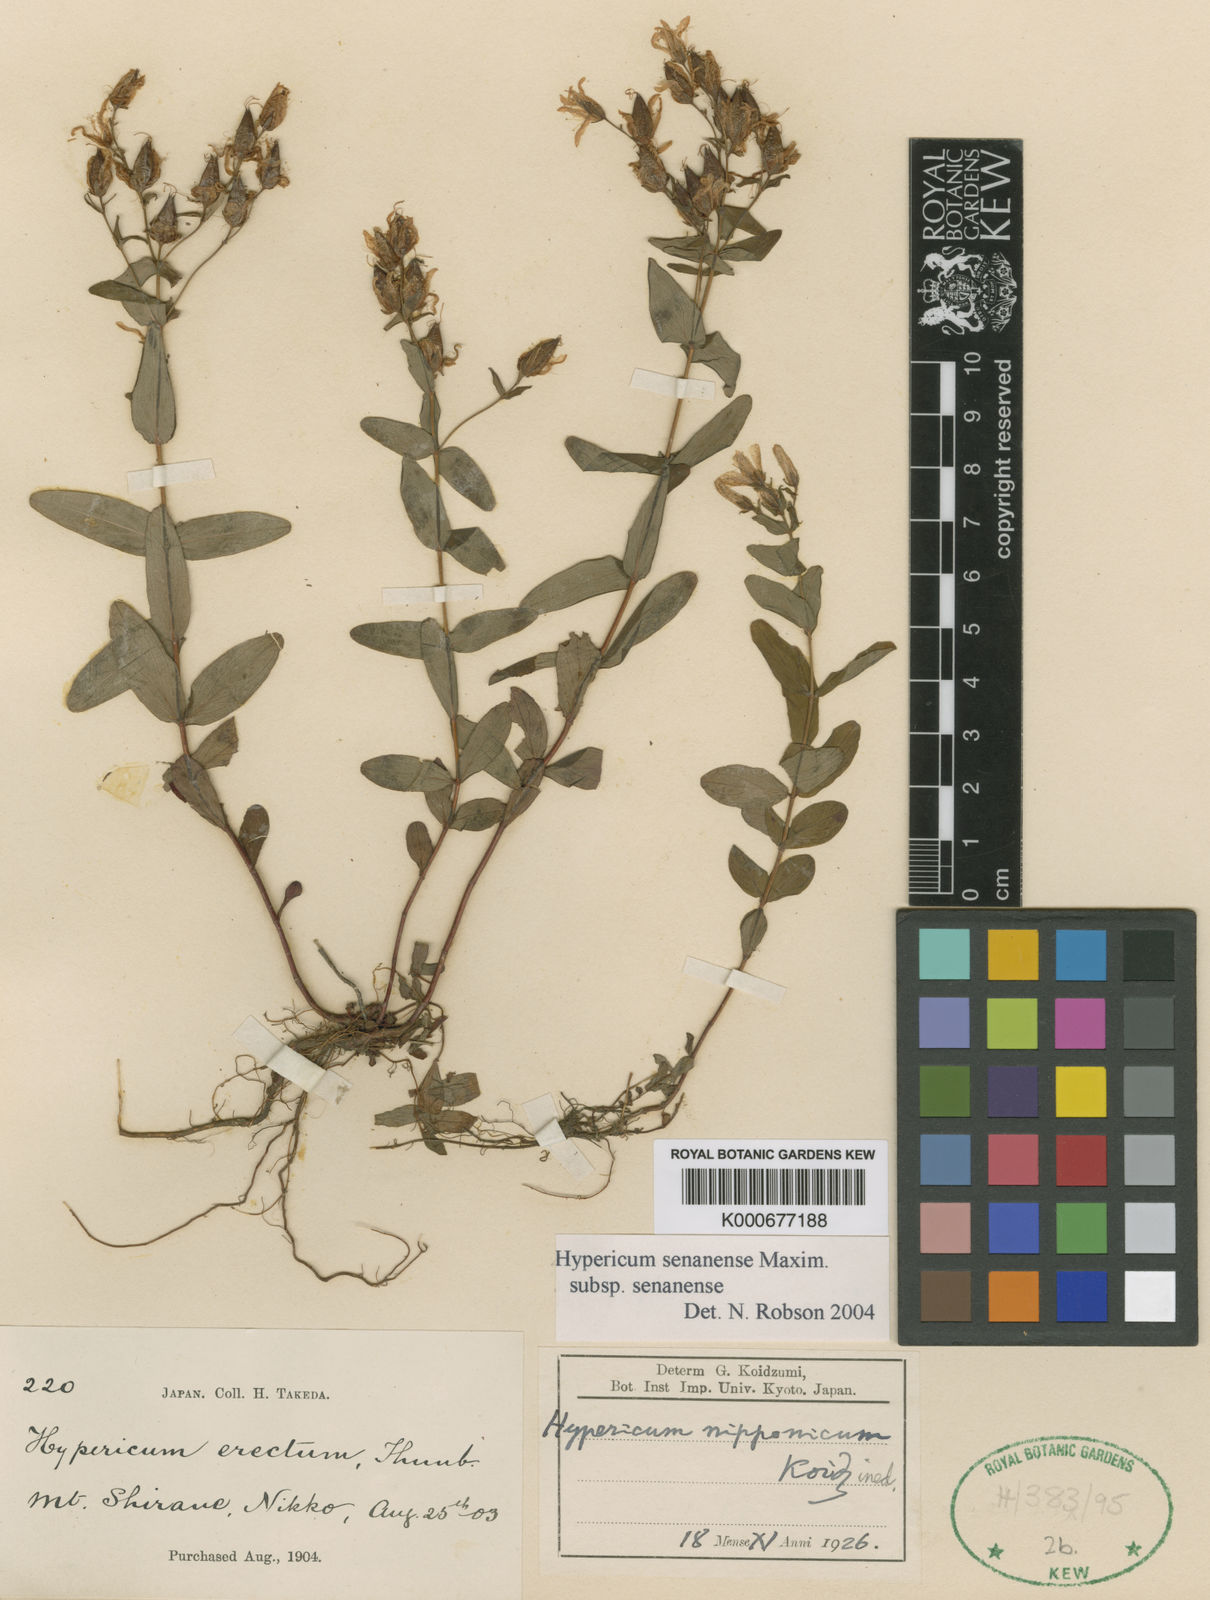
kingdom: Plantae
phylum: Tracheophyta
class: Magnoliopsida
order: Malpighiales
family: Hypericaceae
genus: Hypericum
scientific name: Hypericum senanense
